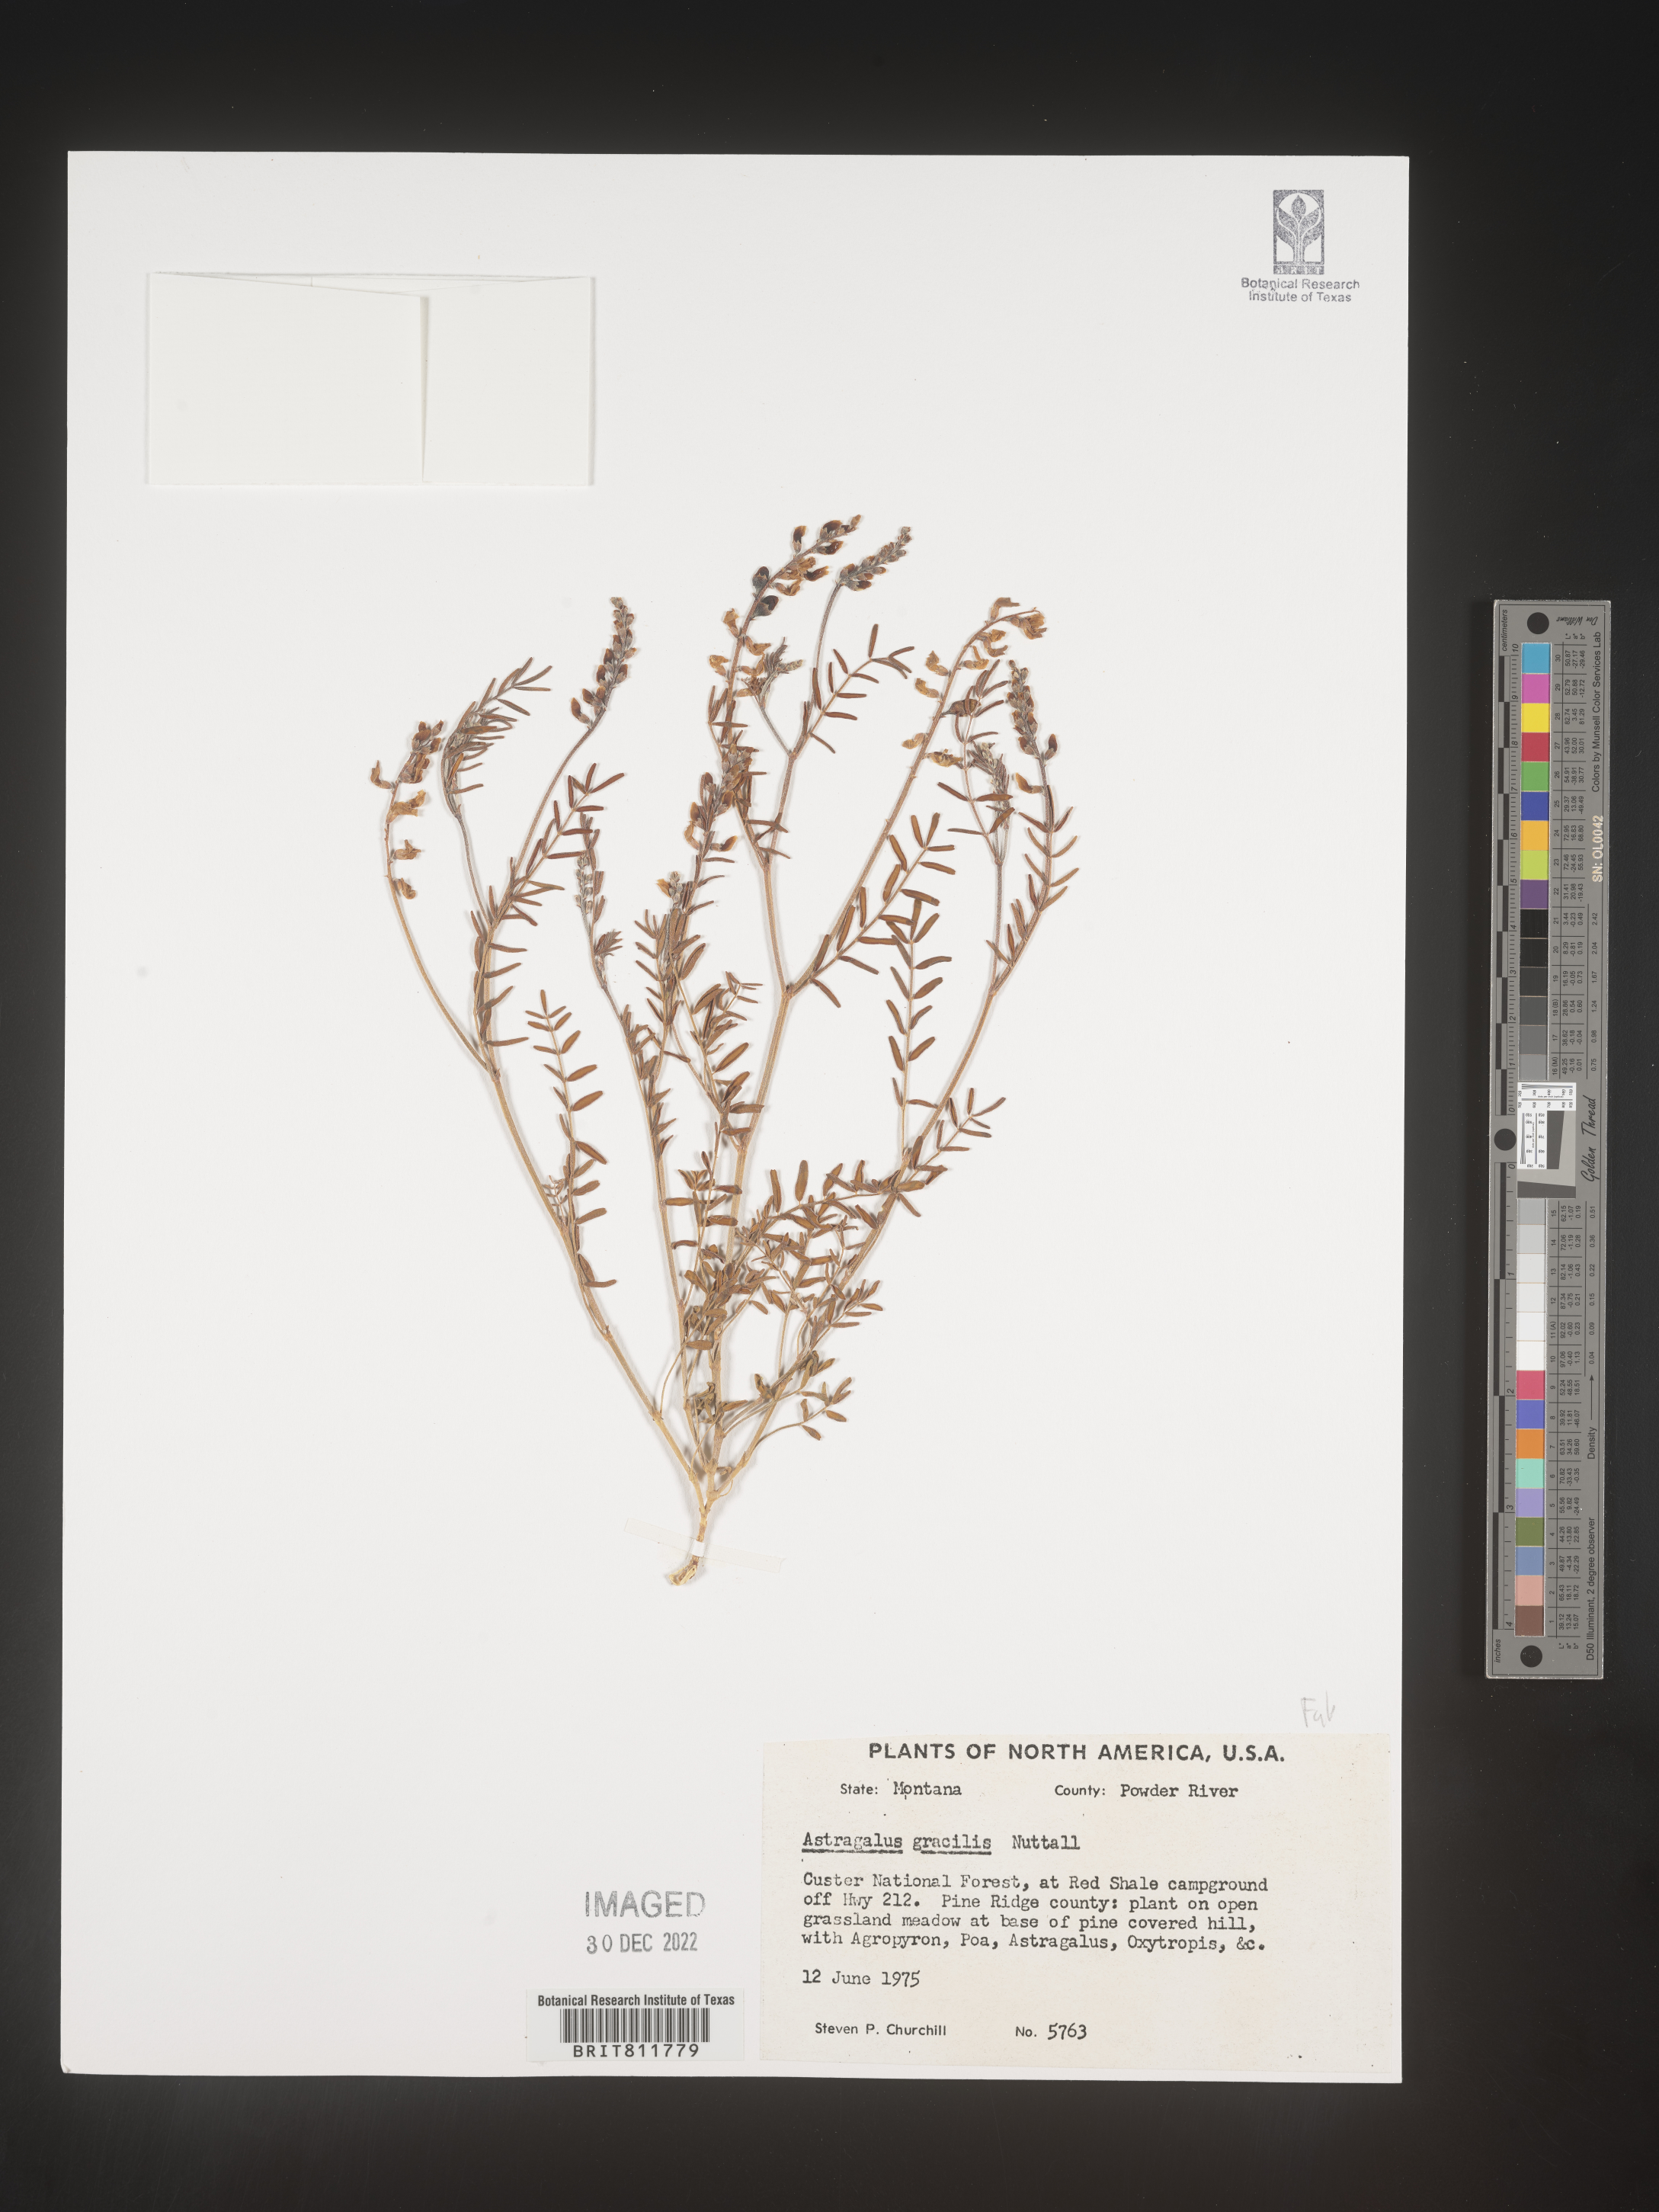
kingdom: Plantae
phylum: Tracheophyta
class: Magnoliopsida
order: Fabales
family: Fabaceae
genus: Astragalus
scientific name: Astragalus gracilis
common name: Slender milk-vetch
